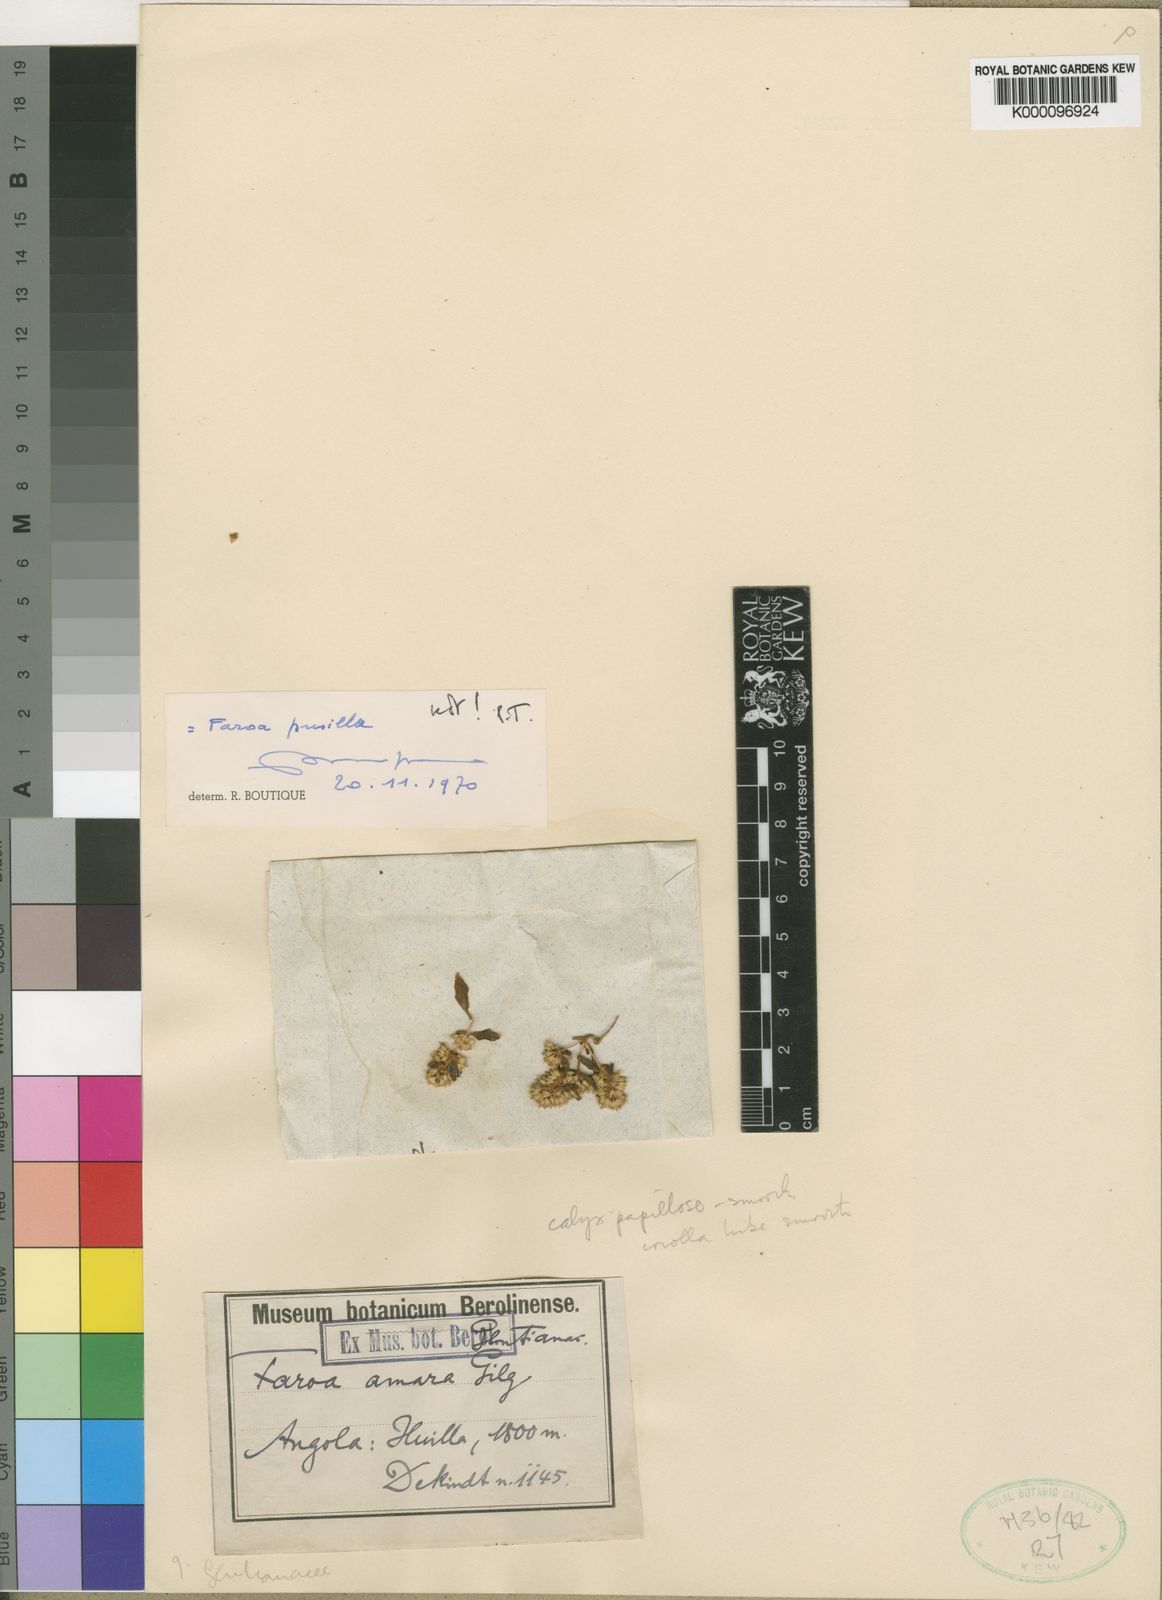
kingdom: Plantae
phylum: Tracheophyta
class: Magnoliopsida
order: Gentianales
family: Gentianaceae
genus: Faroa
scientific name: Faroa amara
